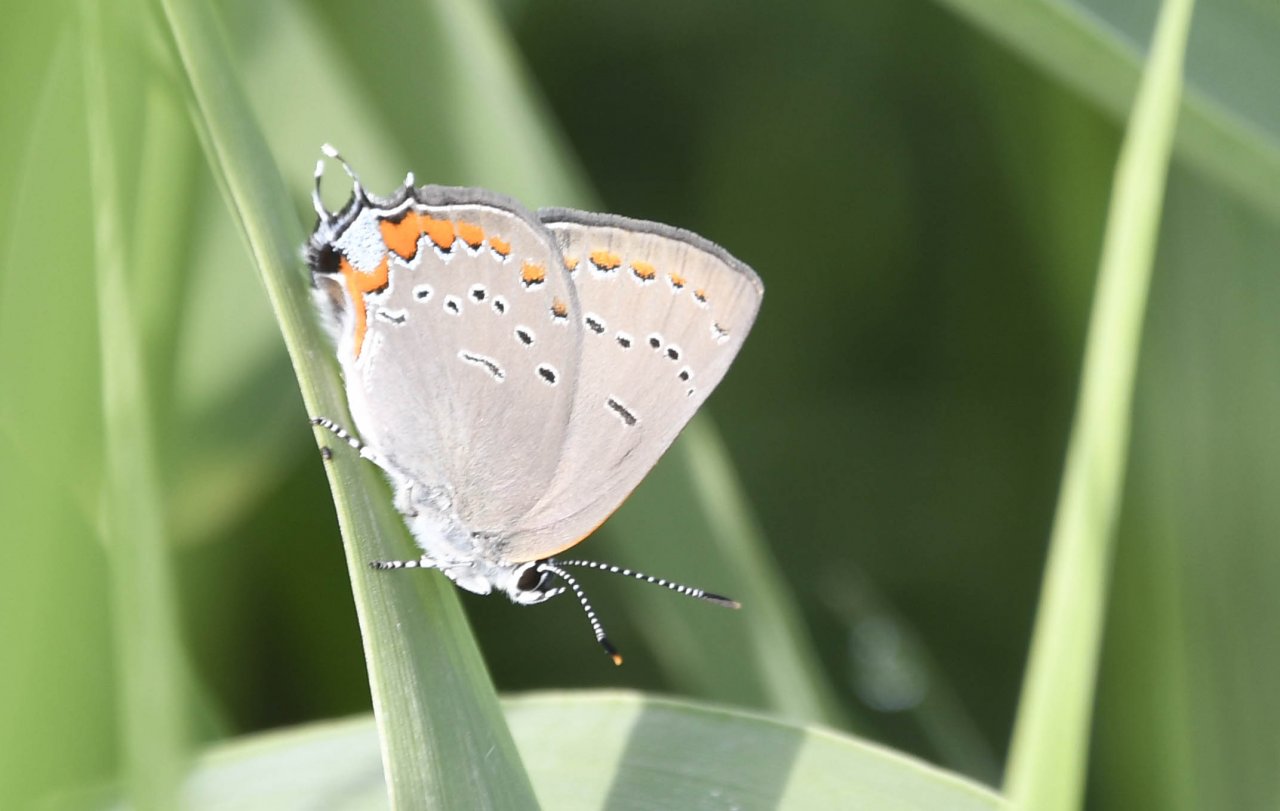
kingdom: Animalia
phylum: Arthropoda
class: Insecta
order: Lepidoptera
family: Lycaenidae
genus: Strymon
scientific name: Strymon acadica
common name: Acadian Hairstreak
